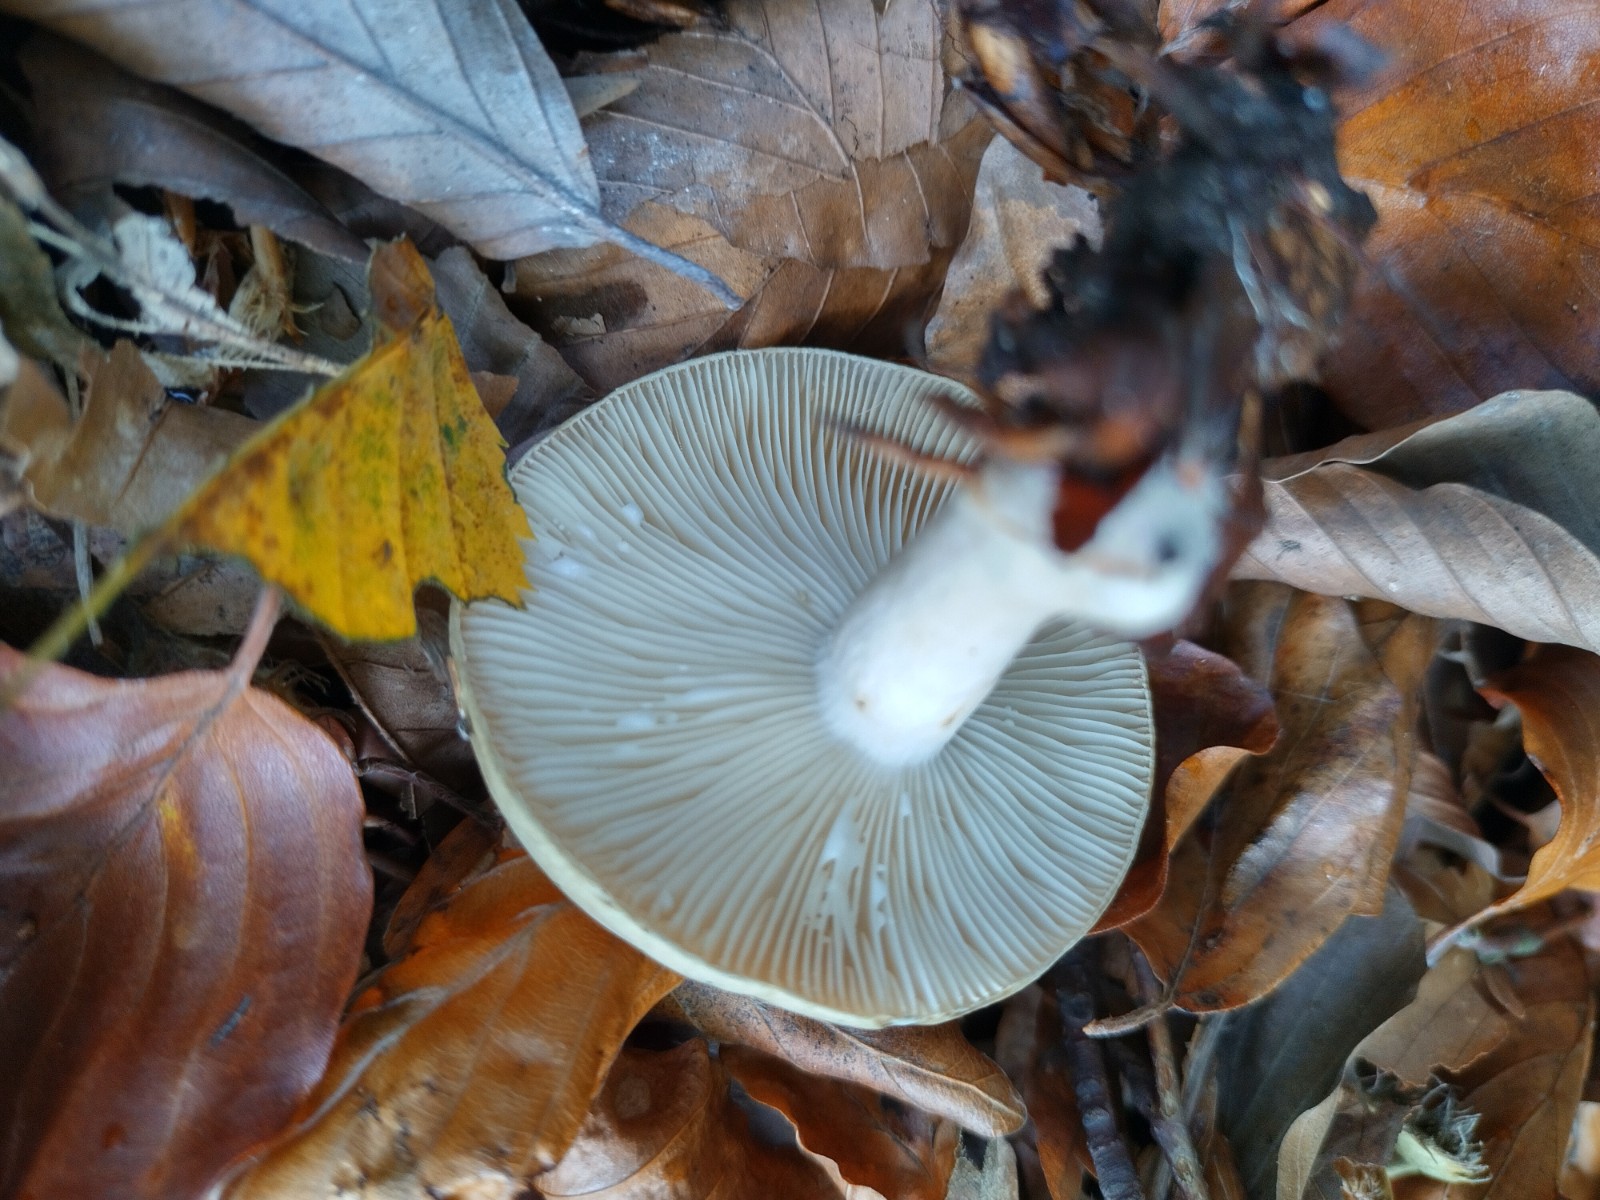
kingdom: Fungi
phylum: Basidiomycota
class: Agaricomycetes
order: Russulales
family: Russulaceae
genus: Lactarius
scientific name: Lactarius blennius
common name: dråbeplettet mælkehat
